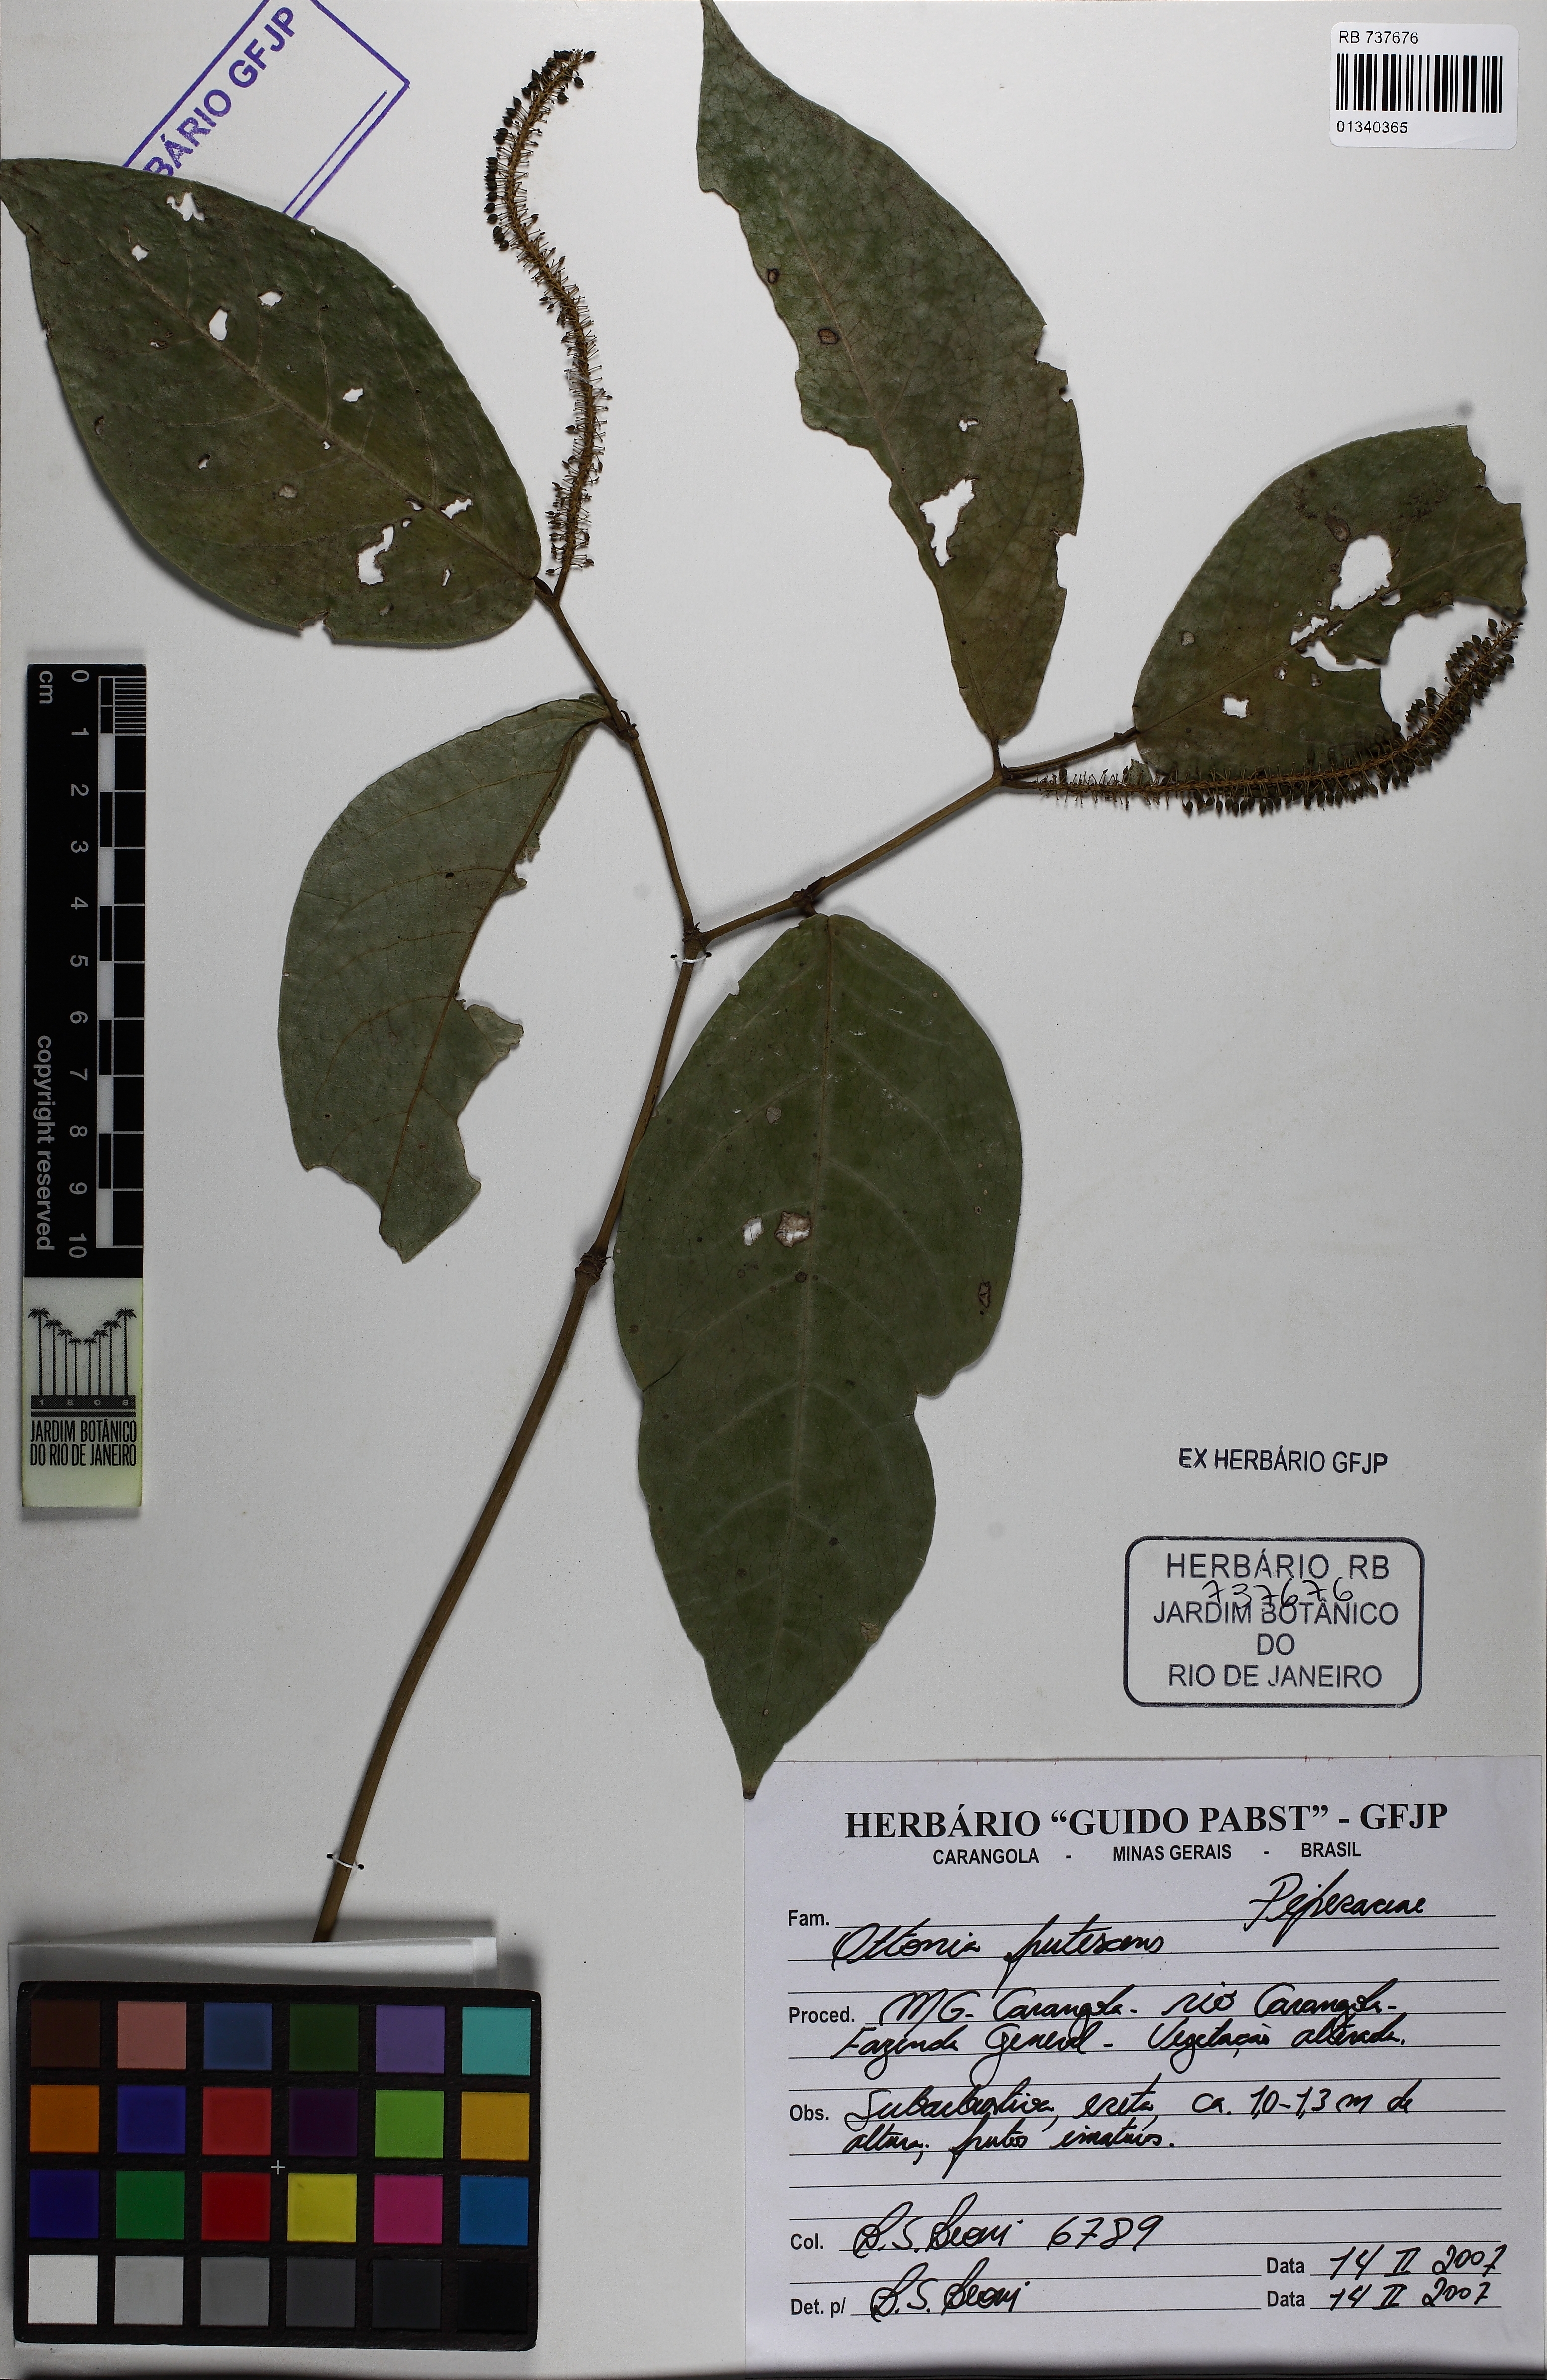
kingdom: Plantae
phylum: Tracheophyta
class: Magnoliopsida
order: Piperales
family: Piperaceae
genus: Piper
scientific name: Piper frutescens
